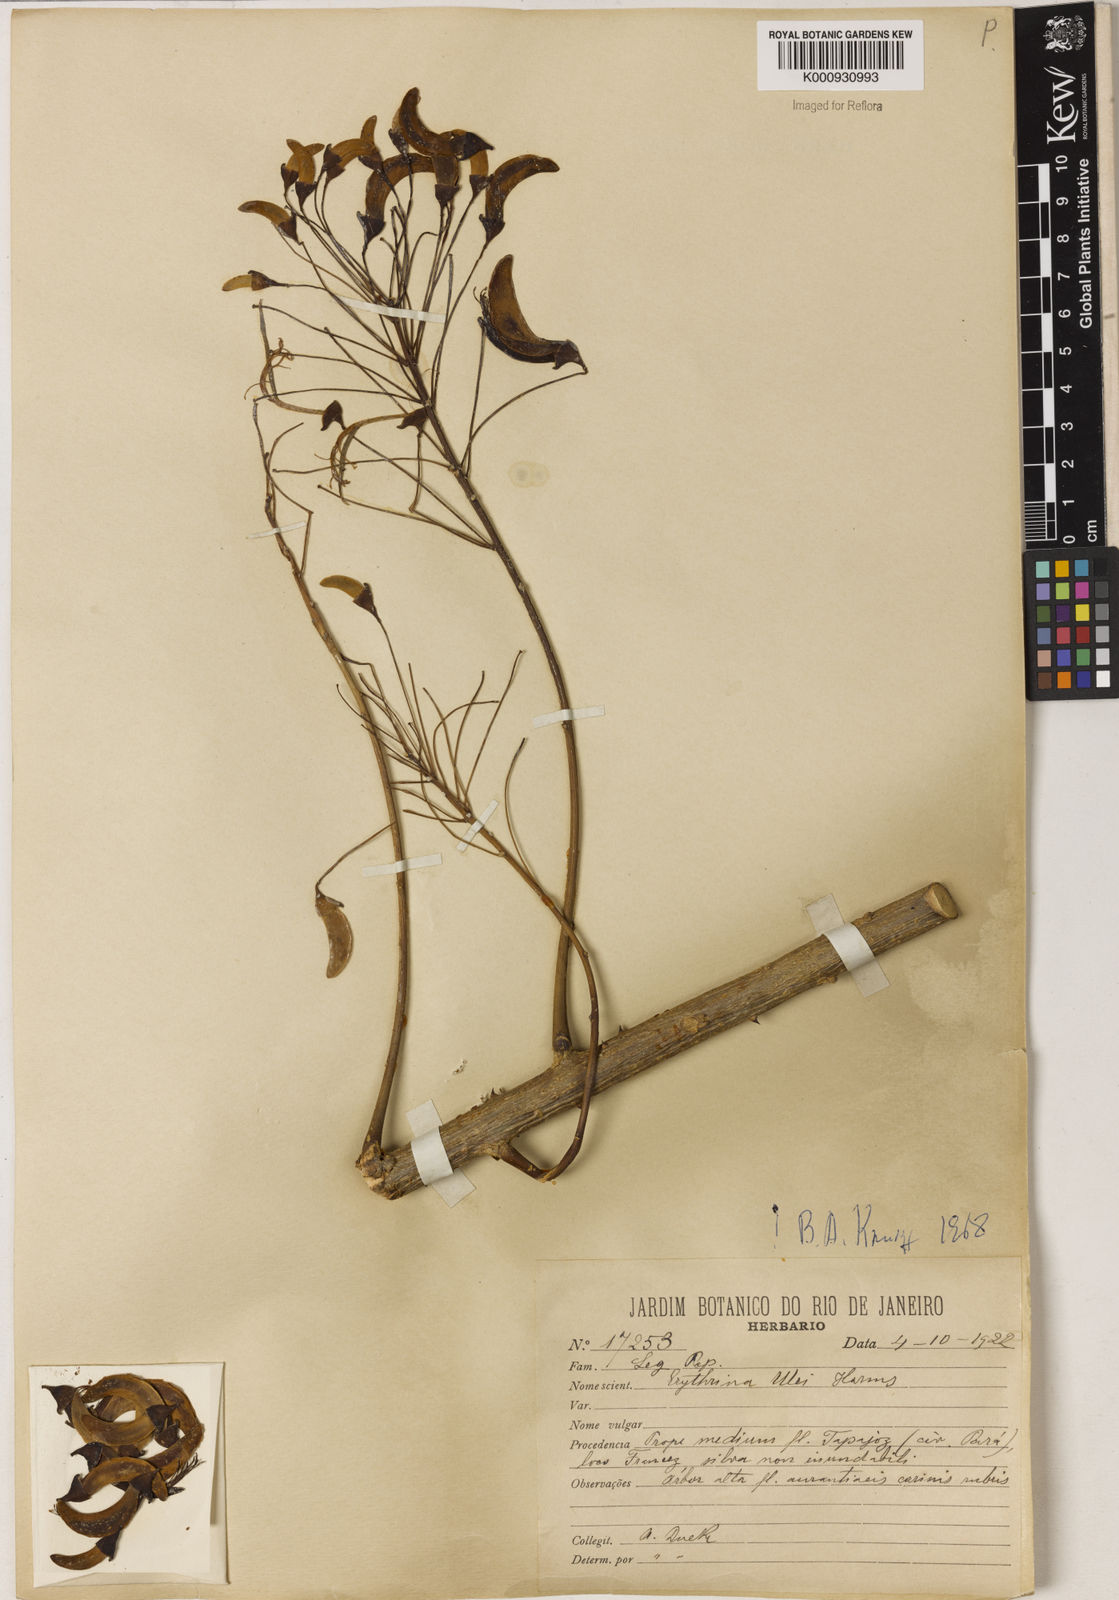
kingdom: Plantae
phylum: Tracheophyta
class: Magnoliopsida
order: Fabales
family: Fabaceae
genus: Erythrina
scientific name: Erythrina ulei
